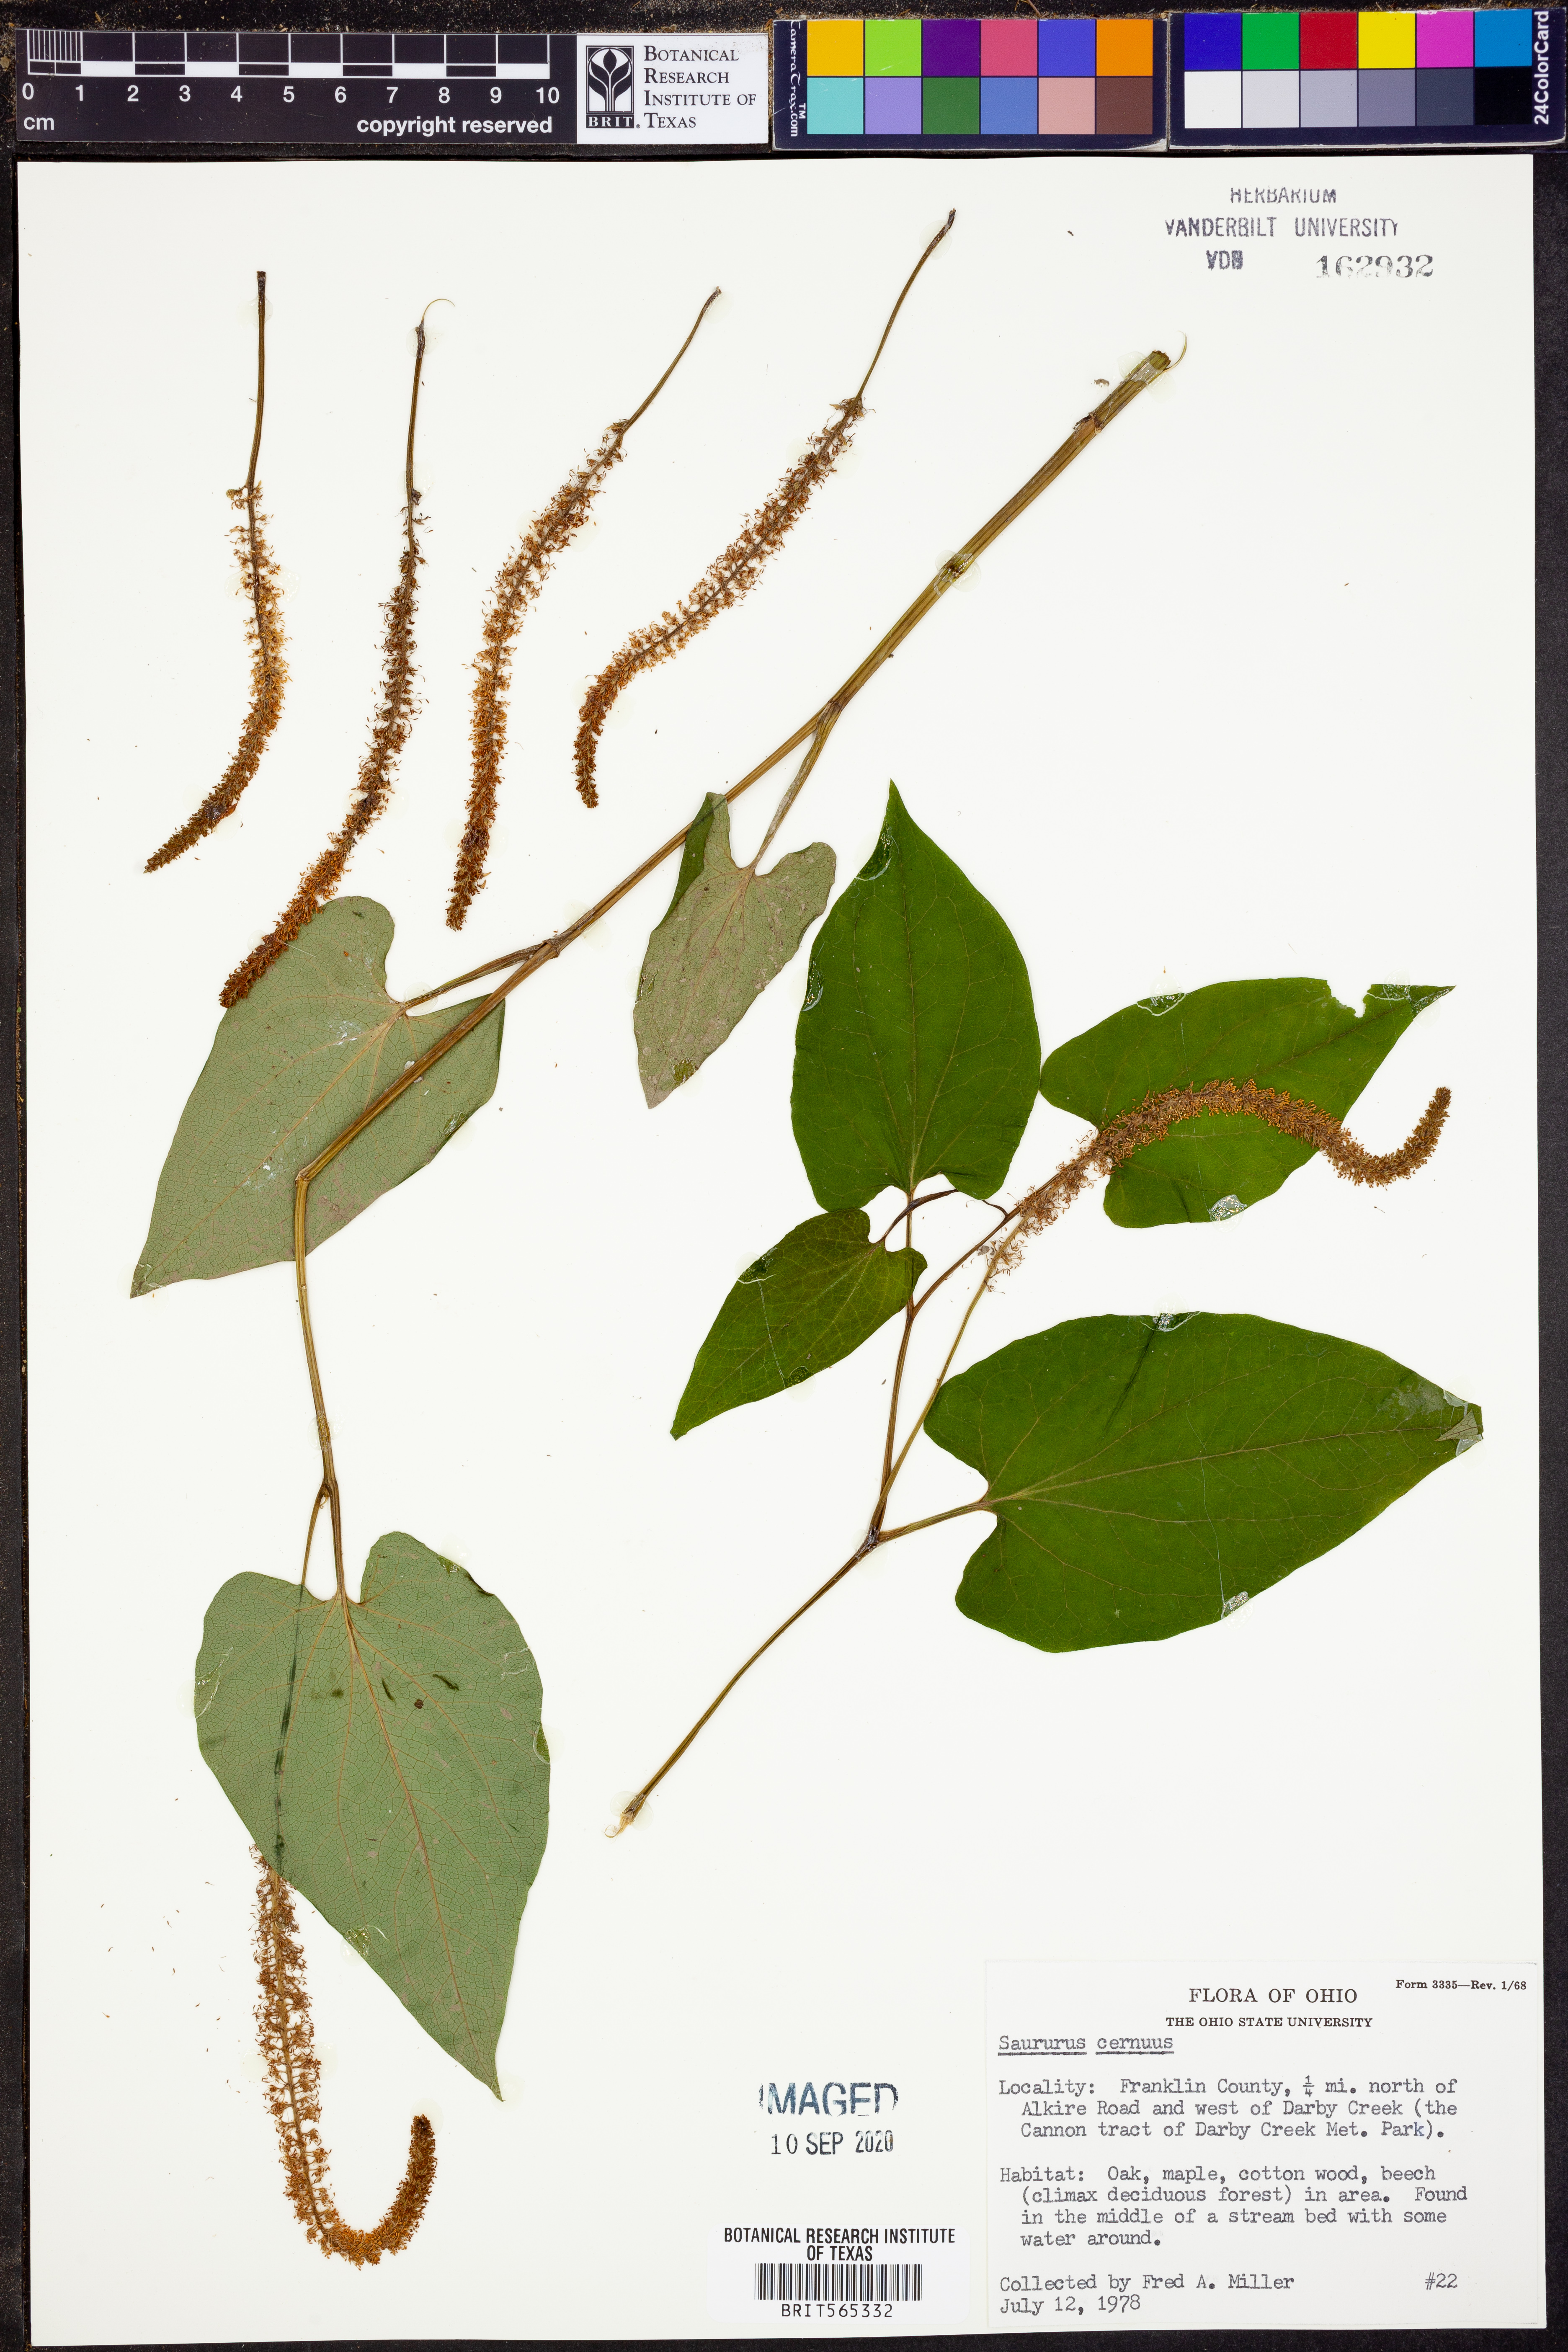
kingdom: Plantae
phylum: Tracheophyta
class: Magnoliopsida
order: Piperales
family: Saururaceae
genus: Saururus
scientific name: Saururus cernuus
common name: Lizard's-tail
